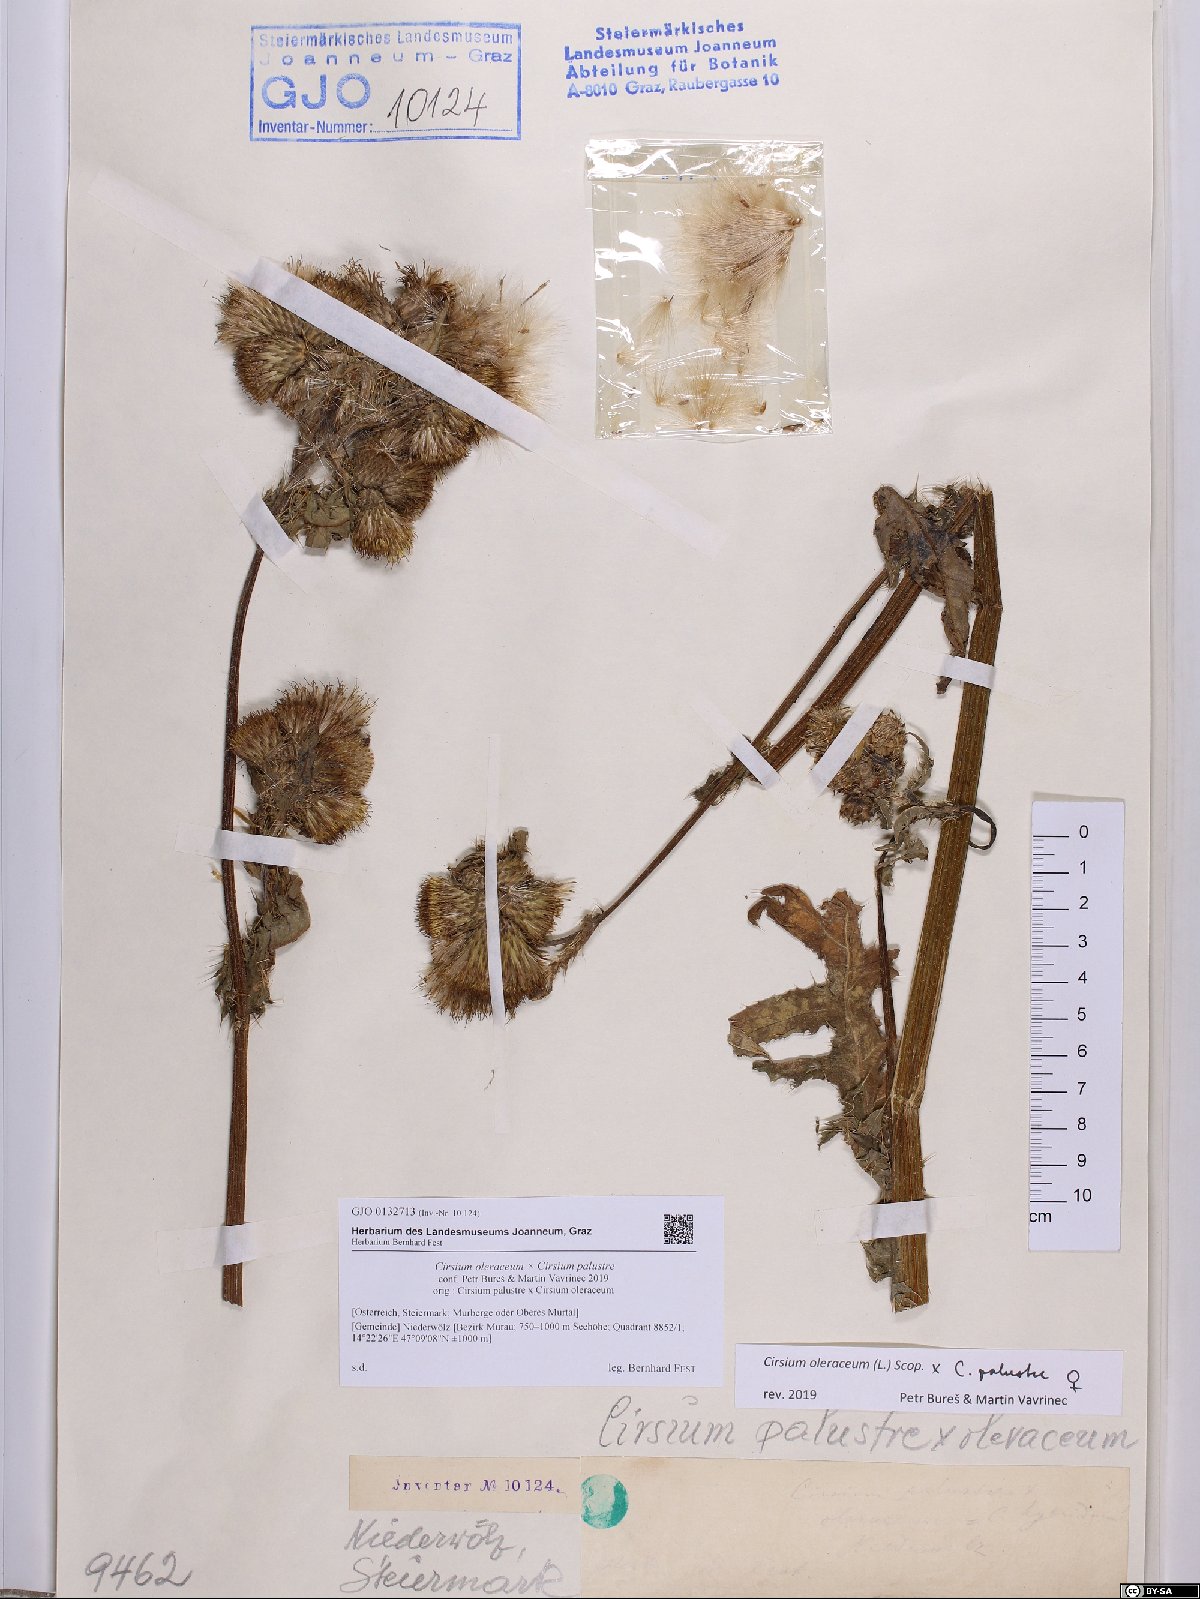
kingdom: Plantae
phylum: Tracheophyta
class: Magnoliopsida
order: Asterales
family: Asteraceae
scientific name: Asteraceae
